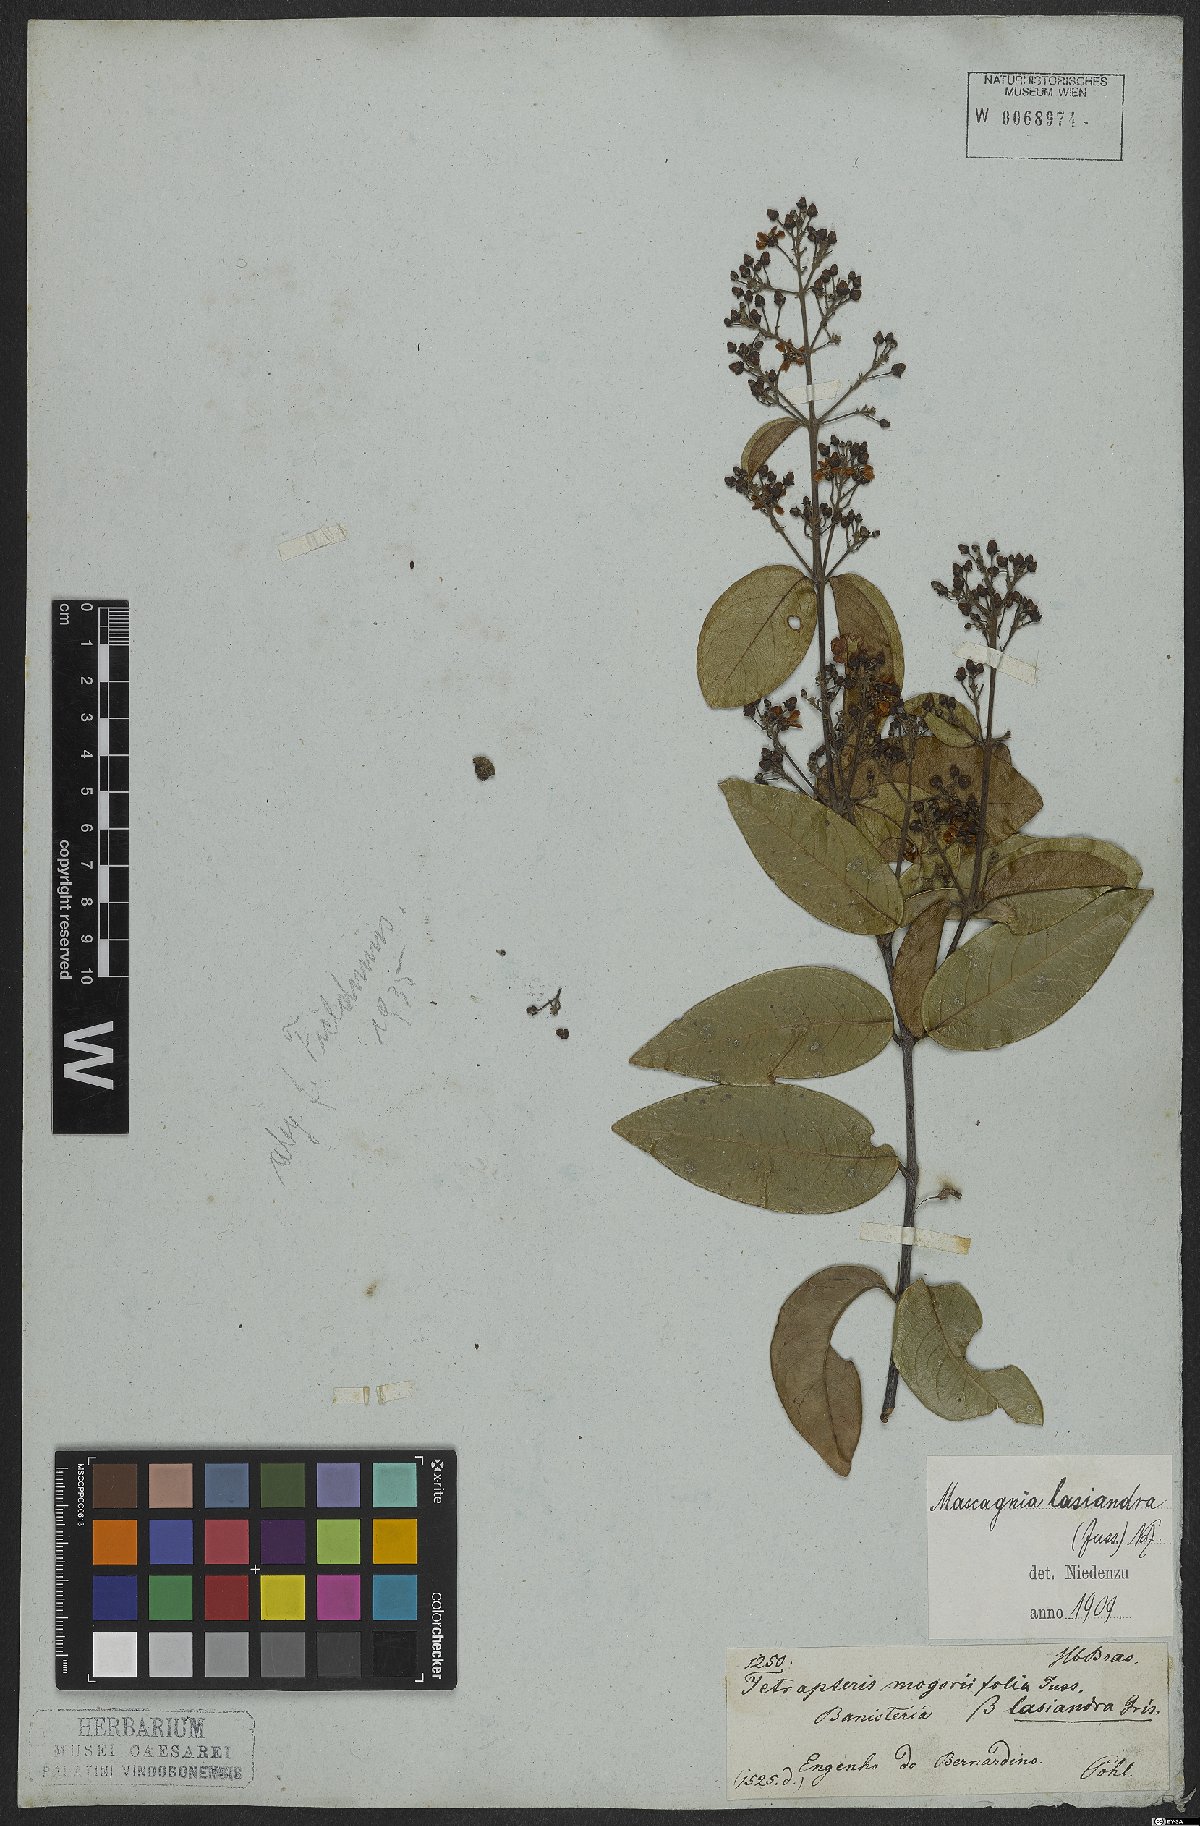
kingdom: Plantae
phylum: Tracheophyta
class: Magnoliopsida
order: Malpighiales
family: Malpighiaceae
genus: Niedenzuella
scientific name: Niedenzuella lasiandra
